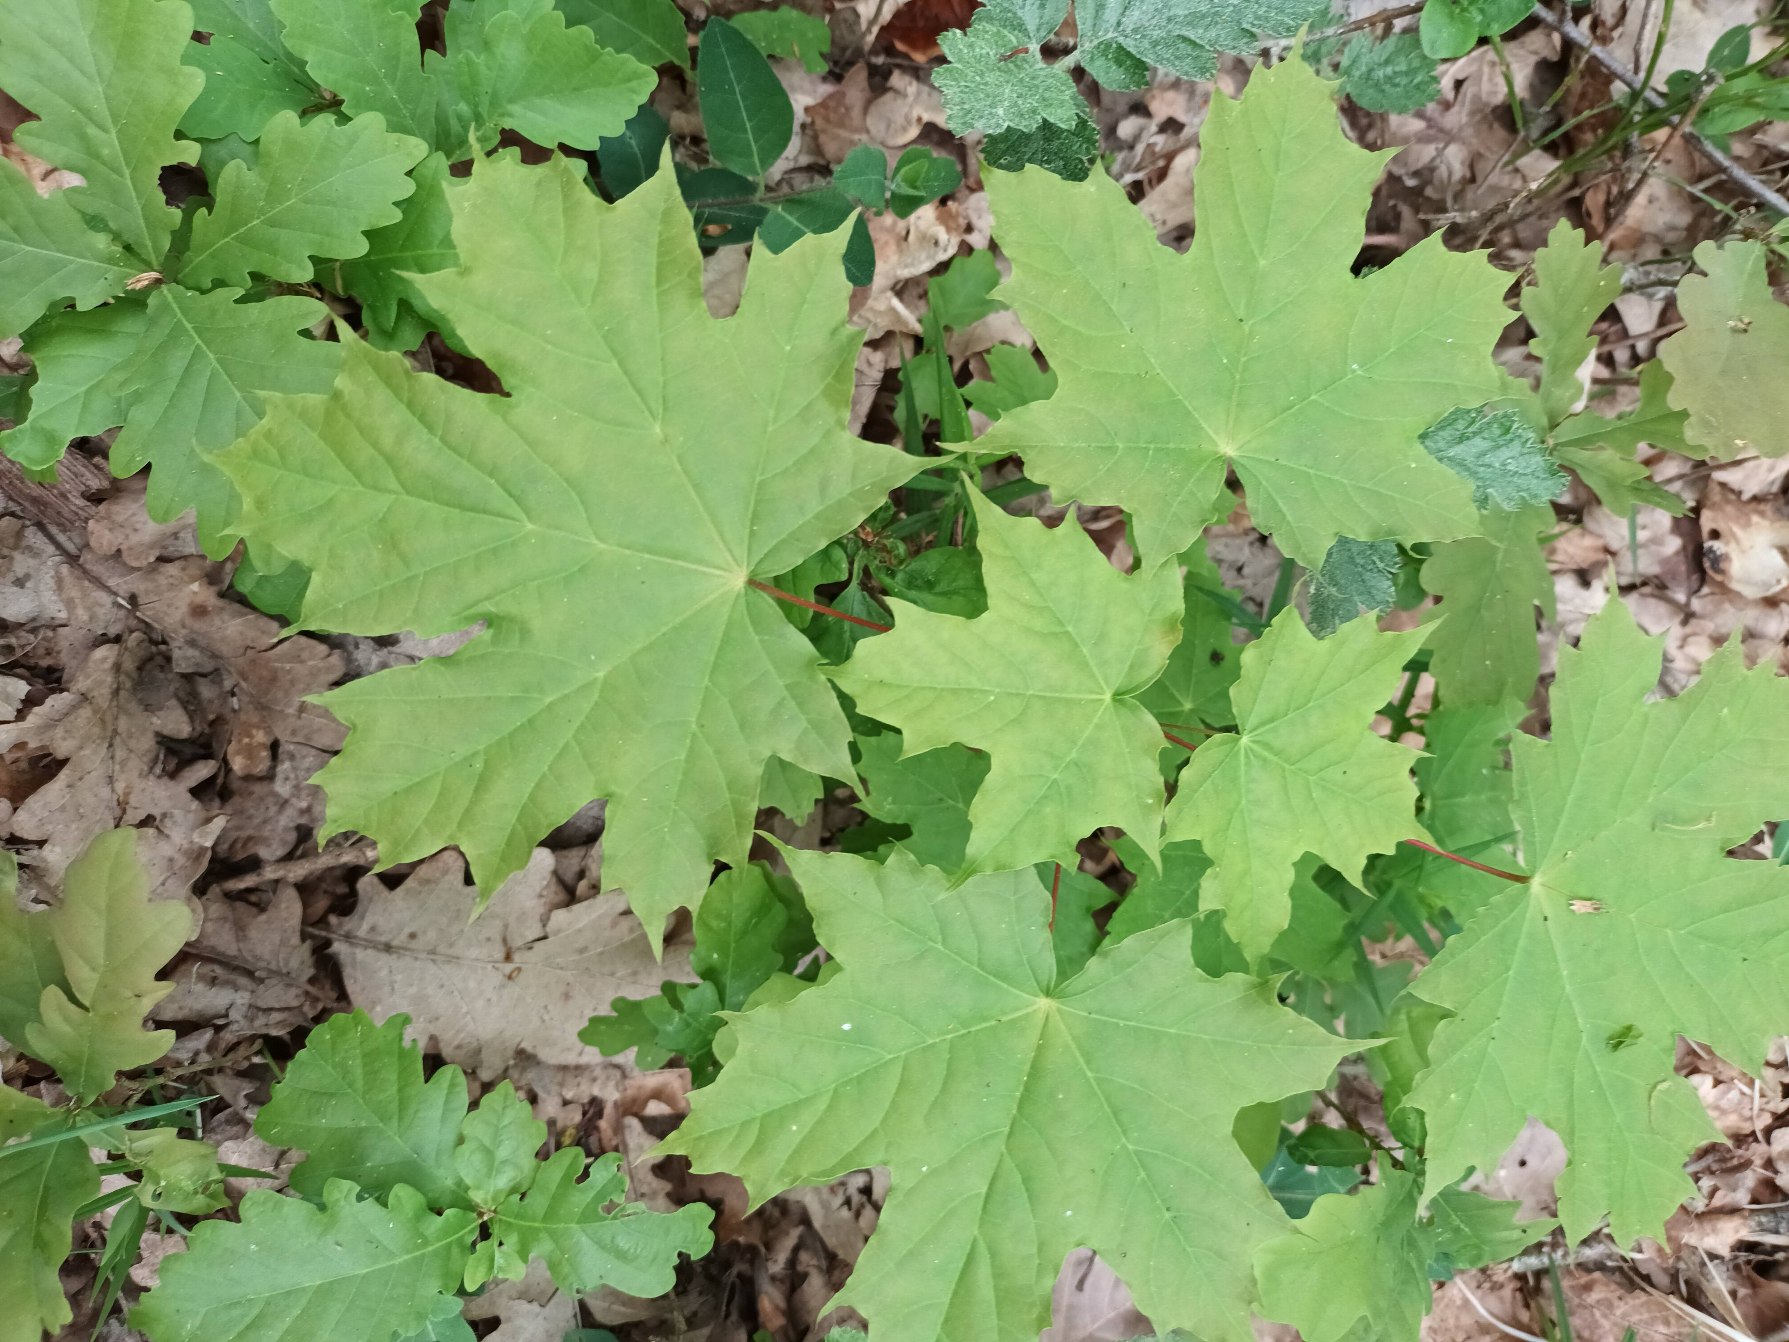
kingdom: Plantae
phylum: Tracheophyta
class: Magnoliopsida
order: Sapindales
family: Sapindaceae
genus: Acer
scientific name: Acer platanoides
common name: Spids-løn
